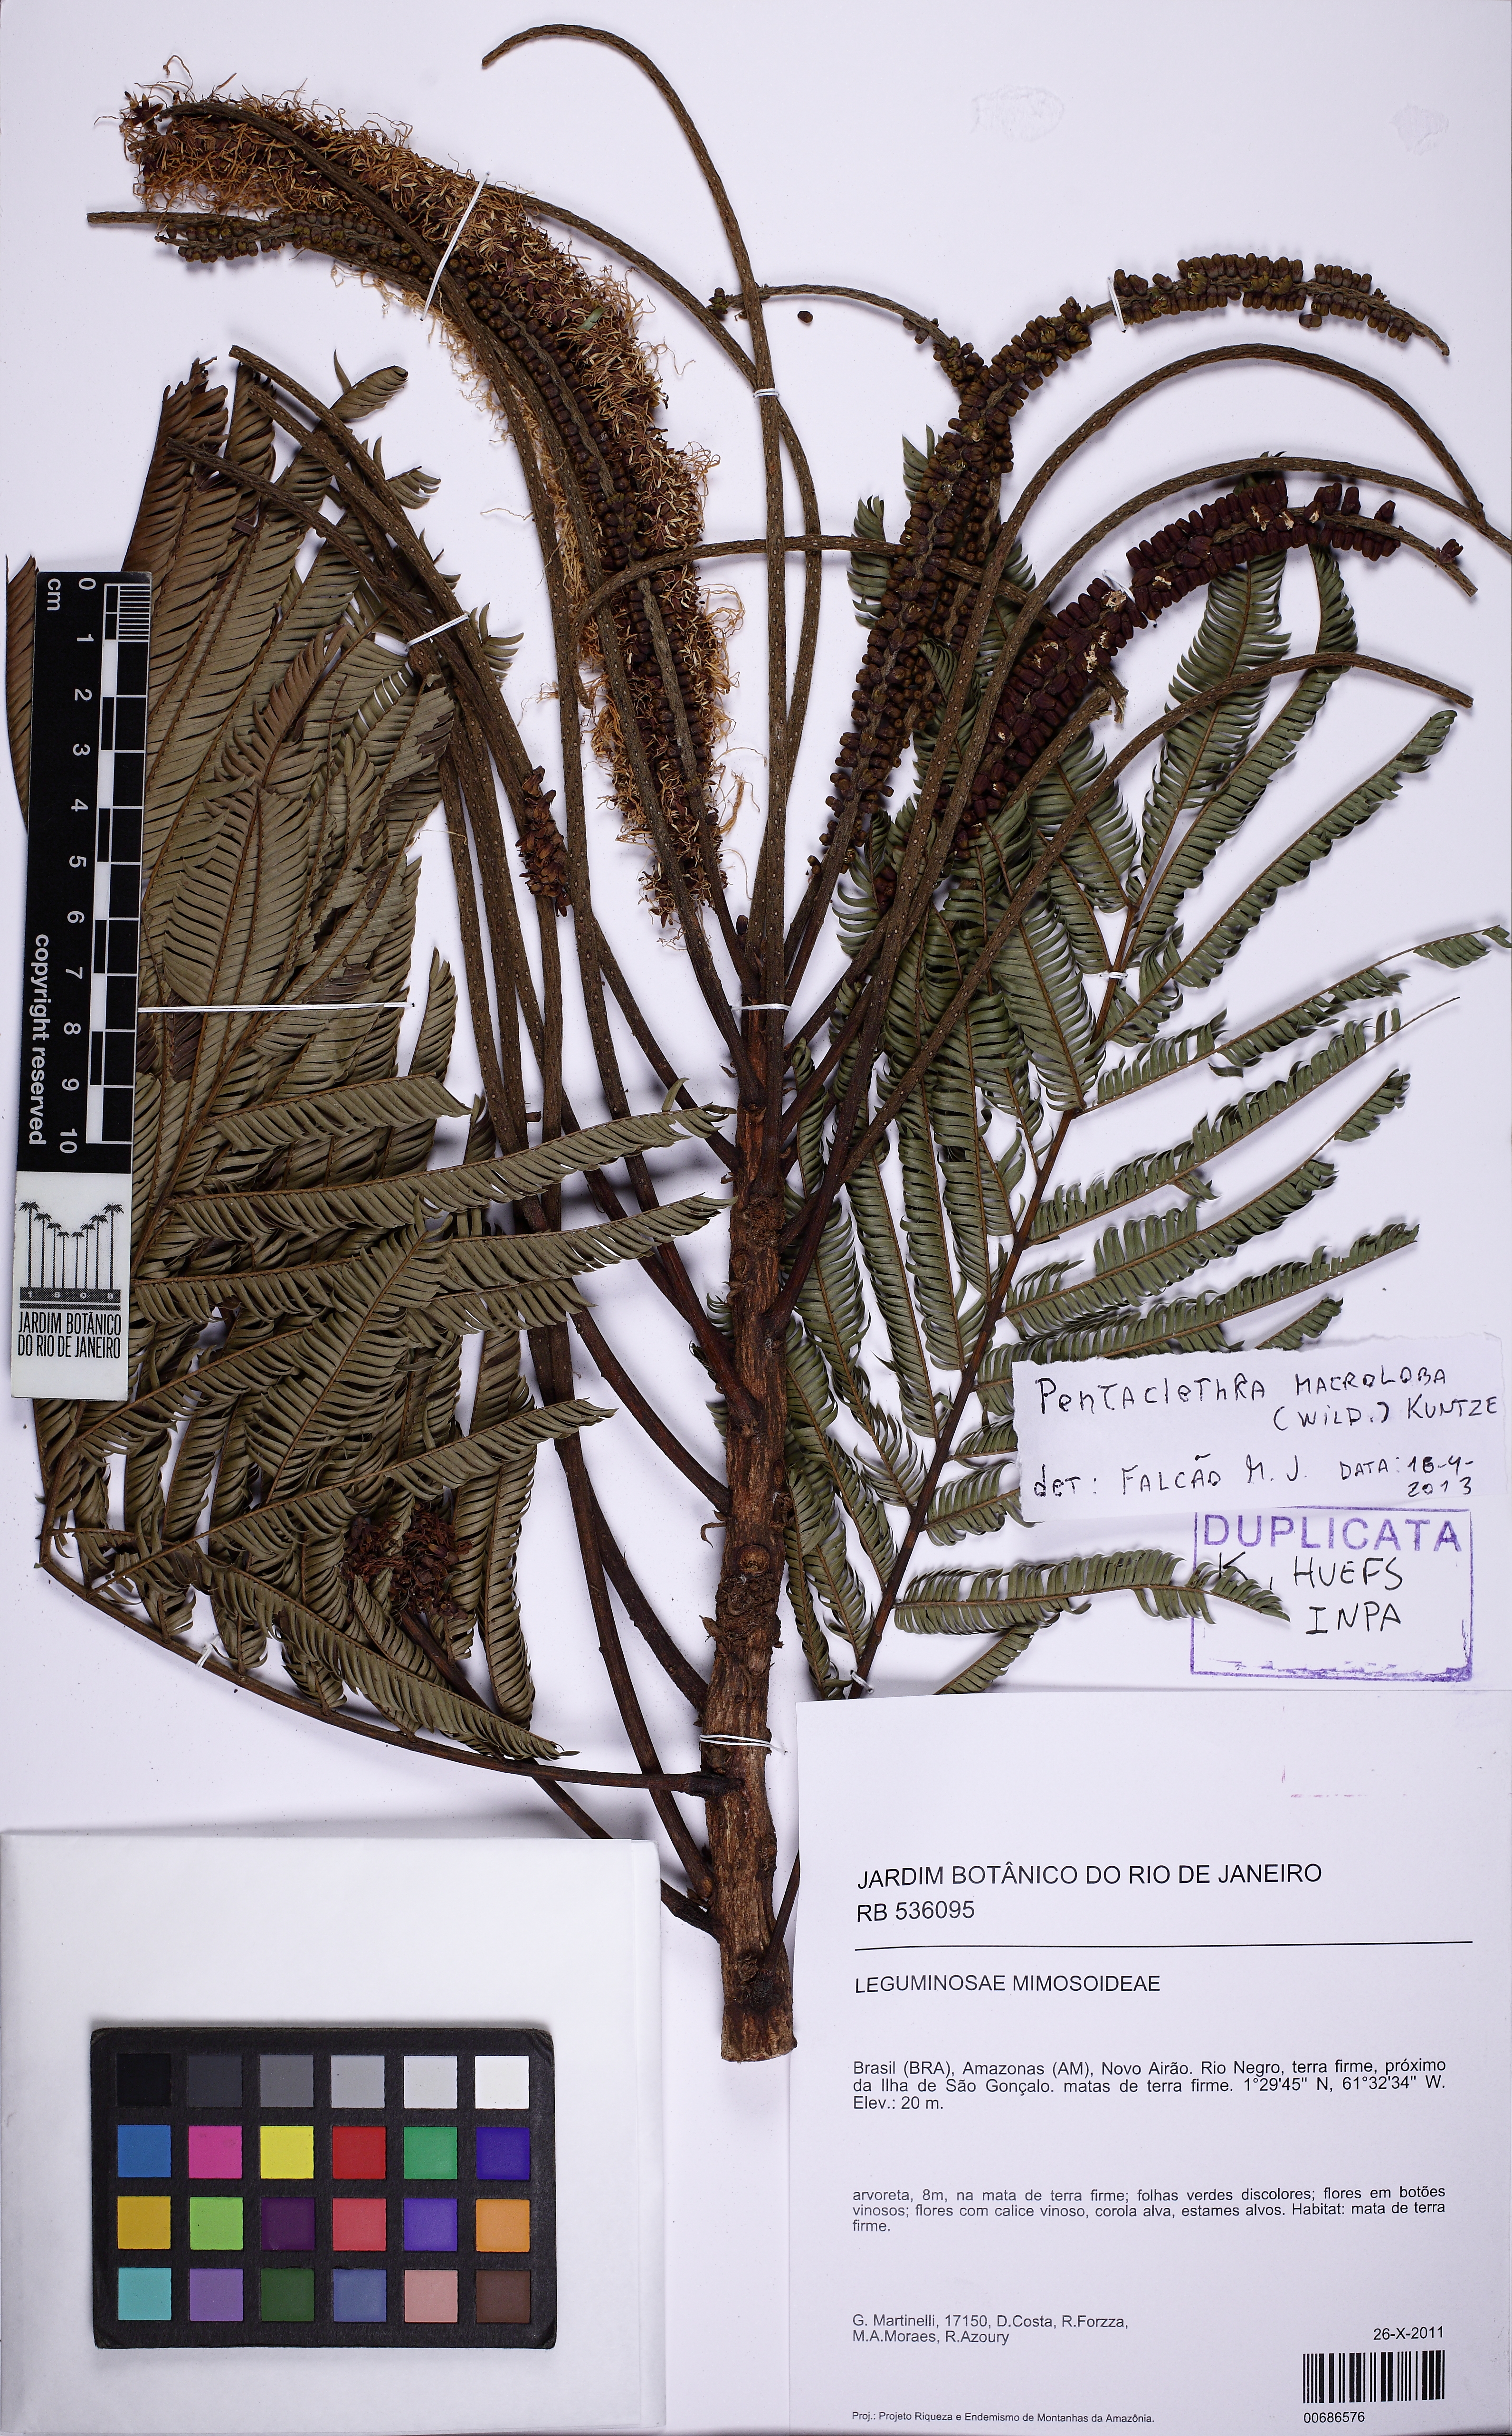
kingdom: Plantae
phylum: Tracheophyta
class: Magnoliopsida
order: Fabales
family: Fabaceae
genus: Pentaclethra
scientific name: Pentaclethra macroloba
